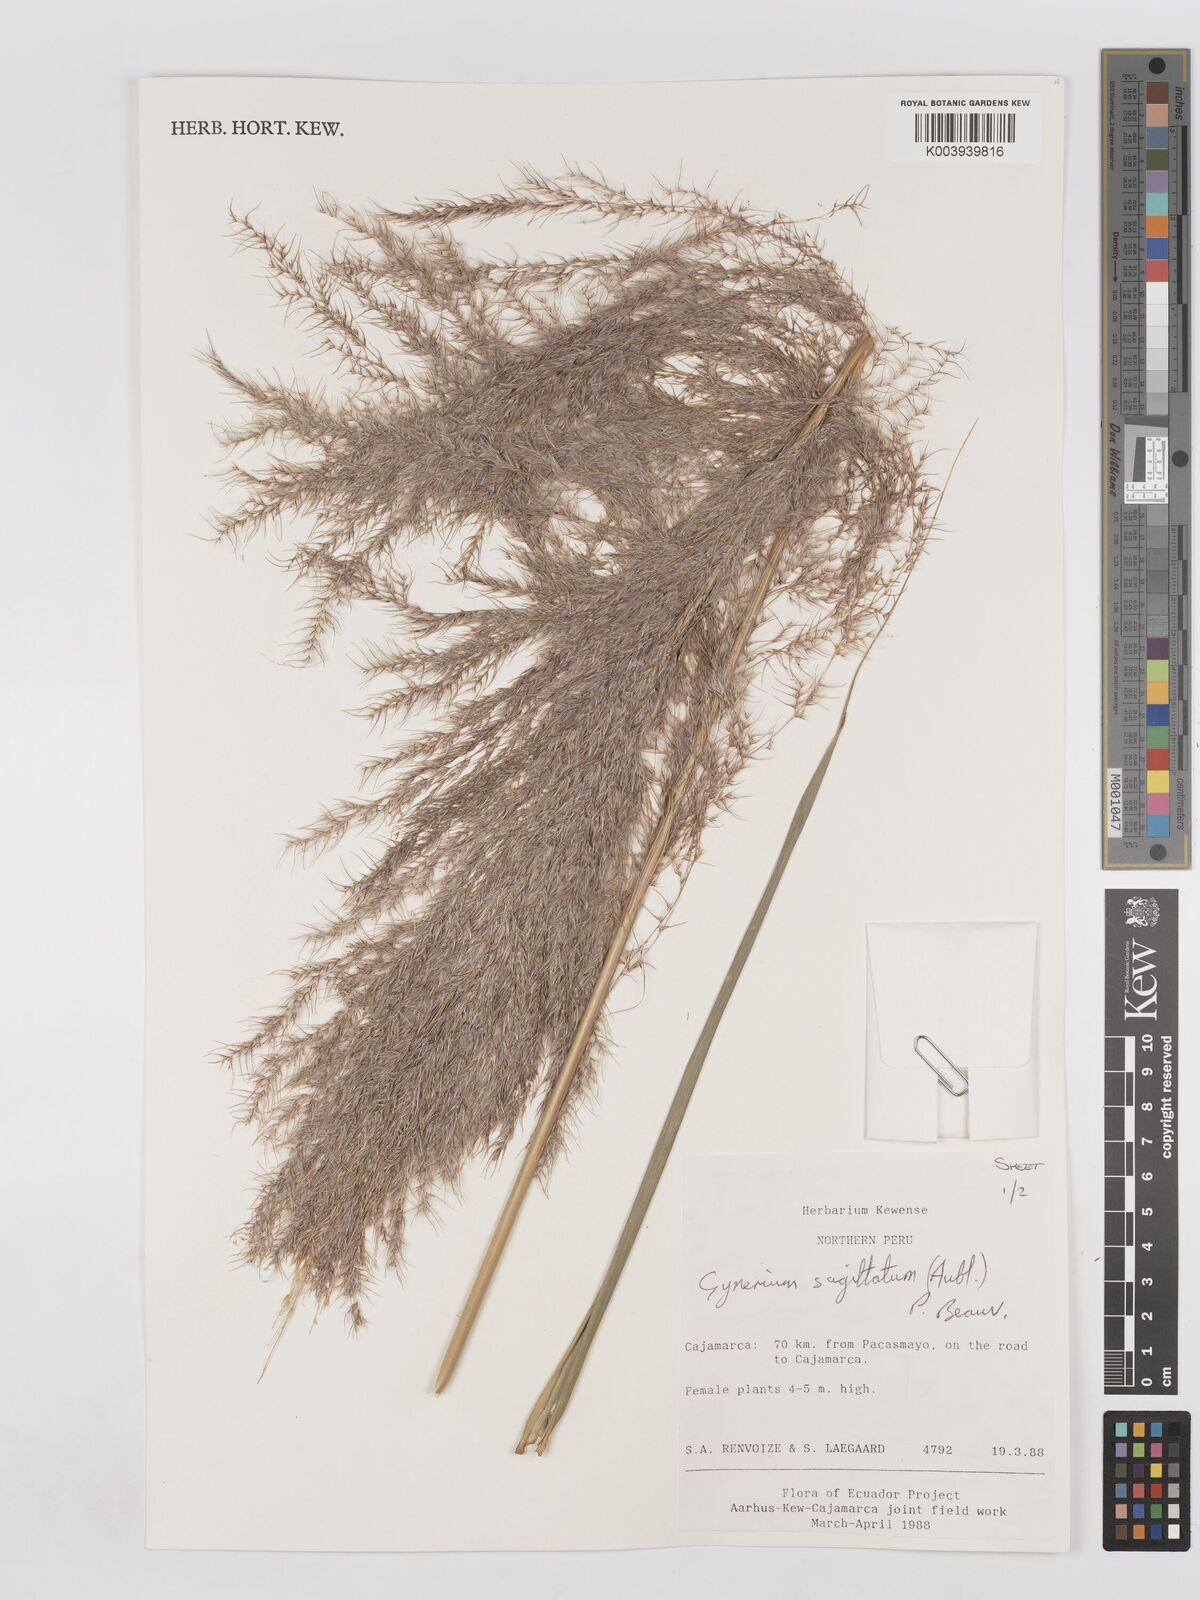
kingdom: Plantae
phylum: Tracheophyta
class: Liliopsida
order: Poales
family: Poaceae
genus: Gynerium
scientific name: Gynerium sagittatum
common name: Wild cane
